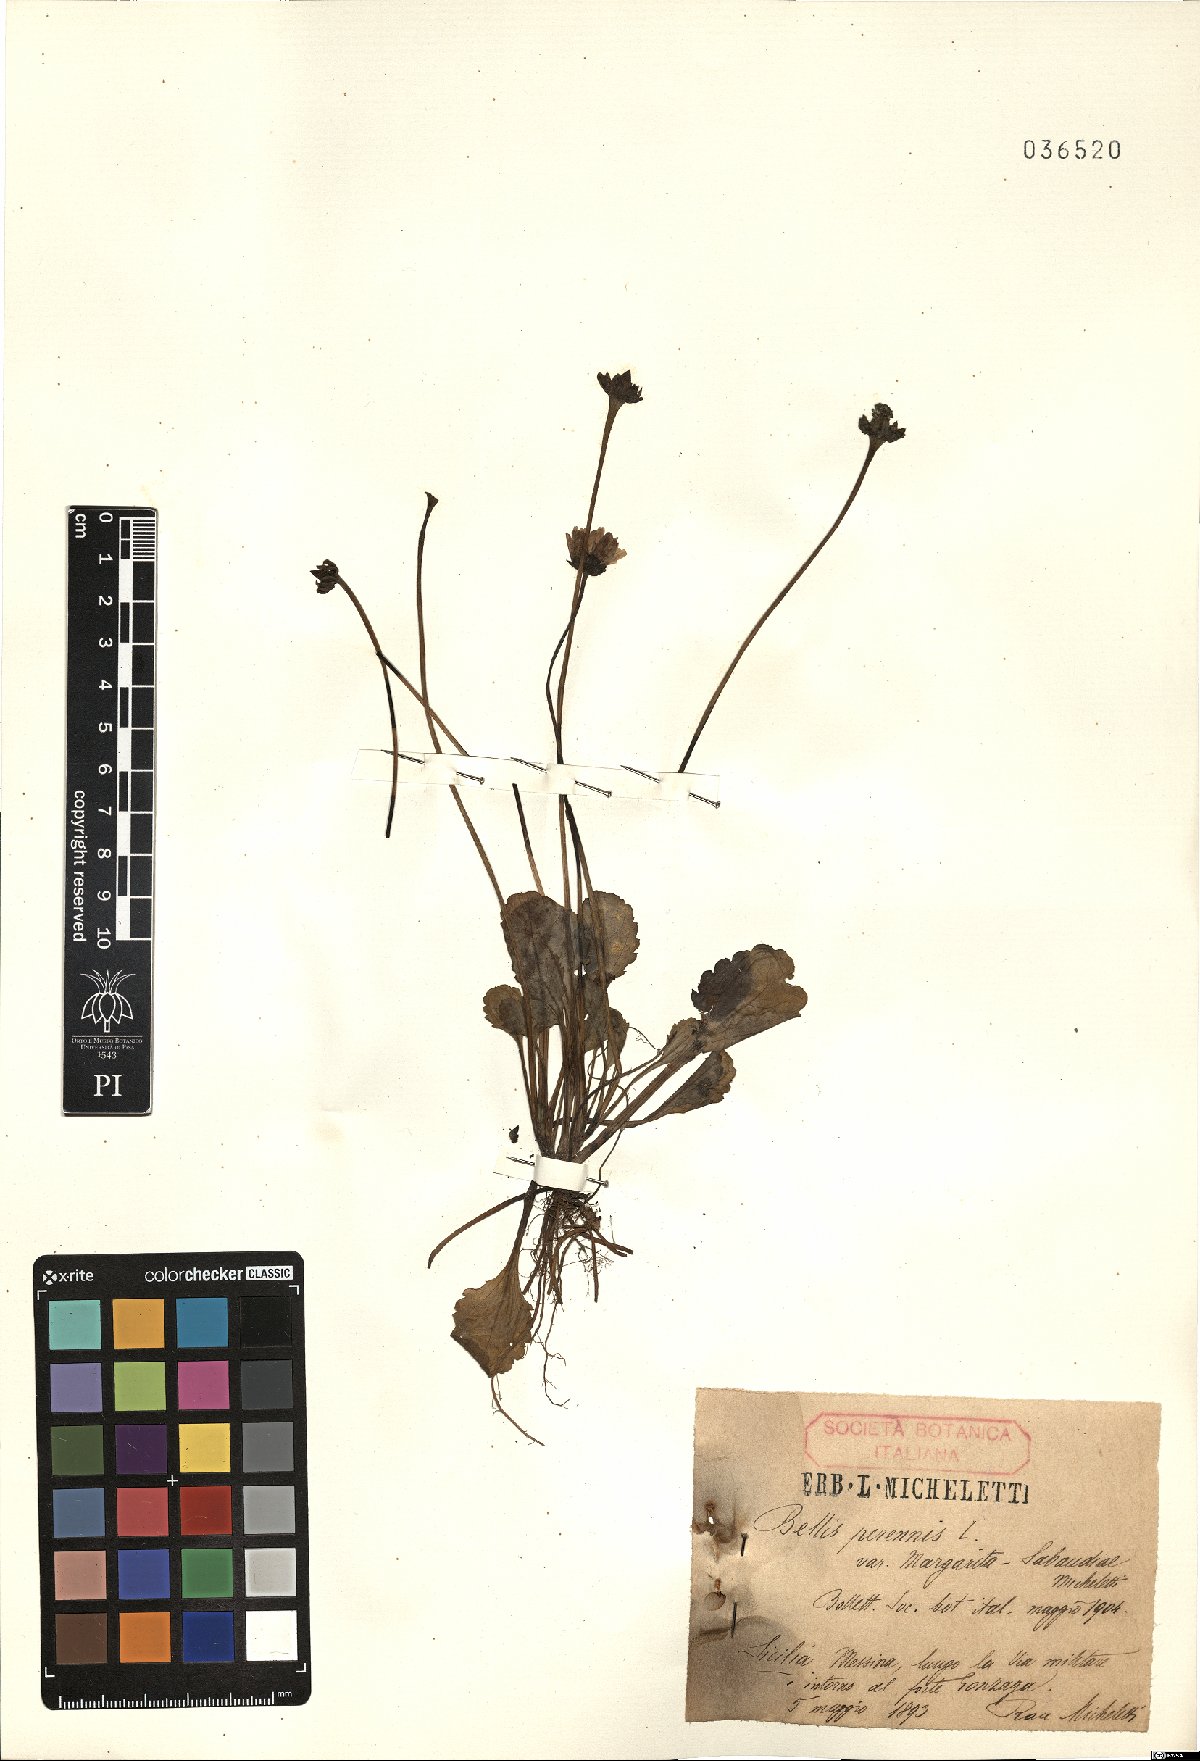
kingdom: Plantae
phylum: Tracheophyta
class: Magnoliopsida
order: Asterales
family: Asteraceae
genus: Bellis
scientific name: Bellis perennis
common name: Lawndaisy
